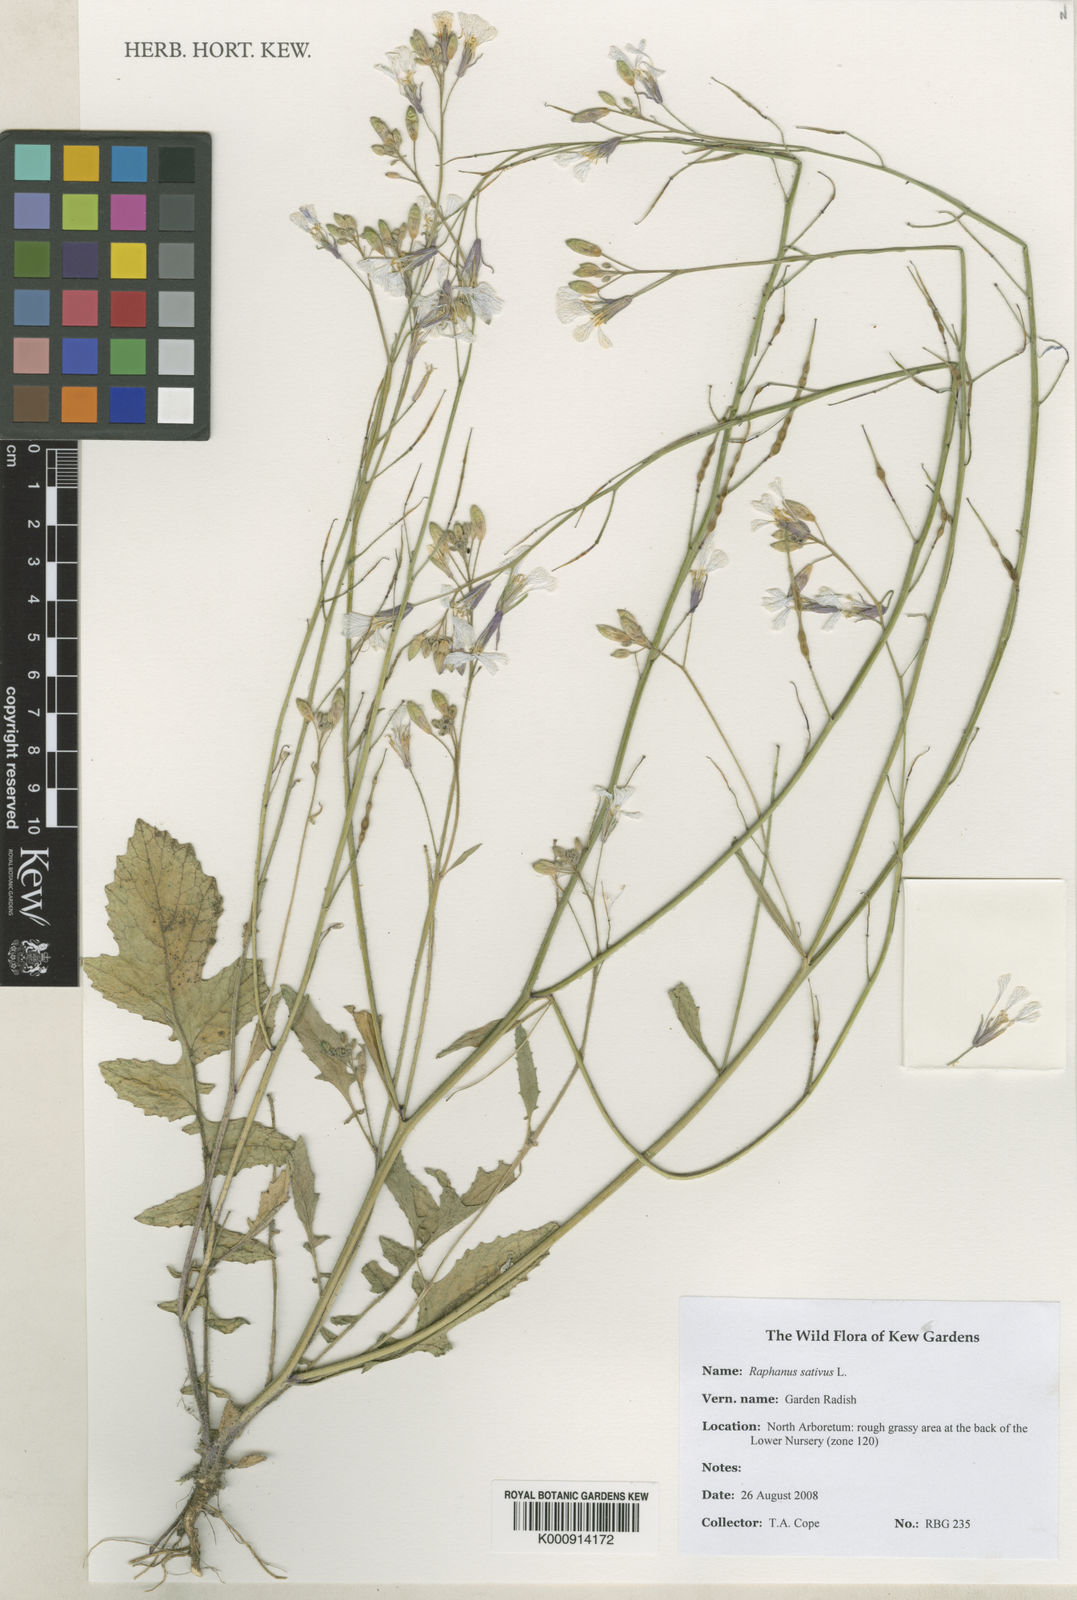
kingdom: Plantae
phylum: Tracheophyta
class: Magnoliopsida
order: Brassicales
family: Brassicaceae
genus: Raphanus
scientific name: Raphanus sativus
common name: Cultivated radish
